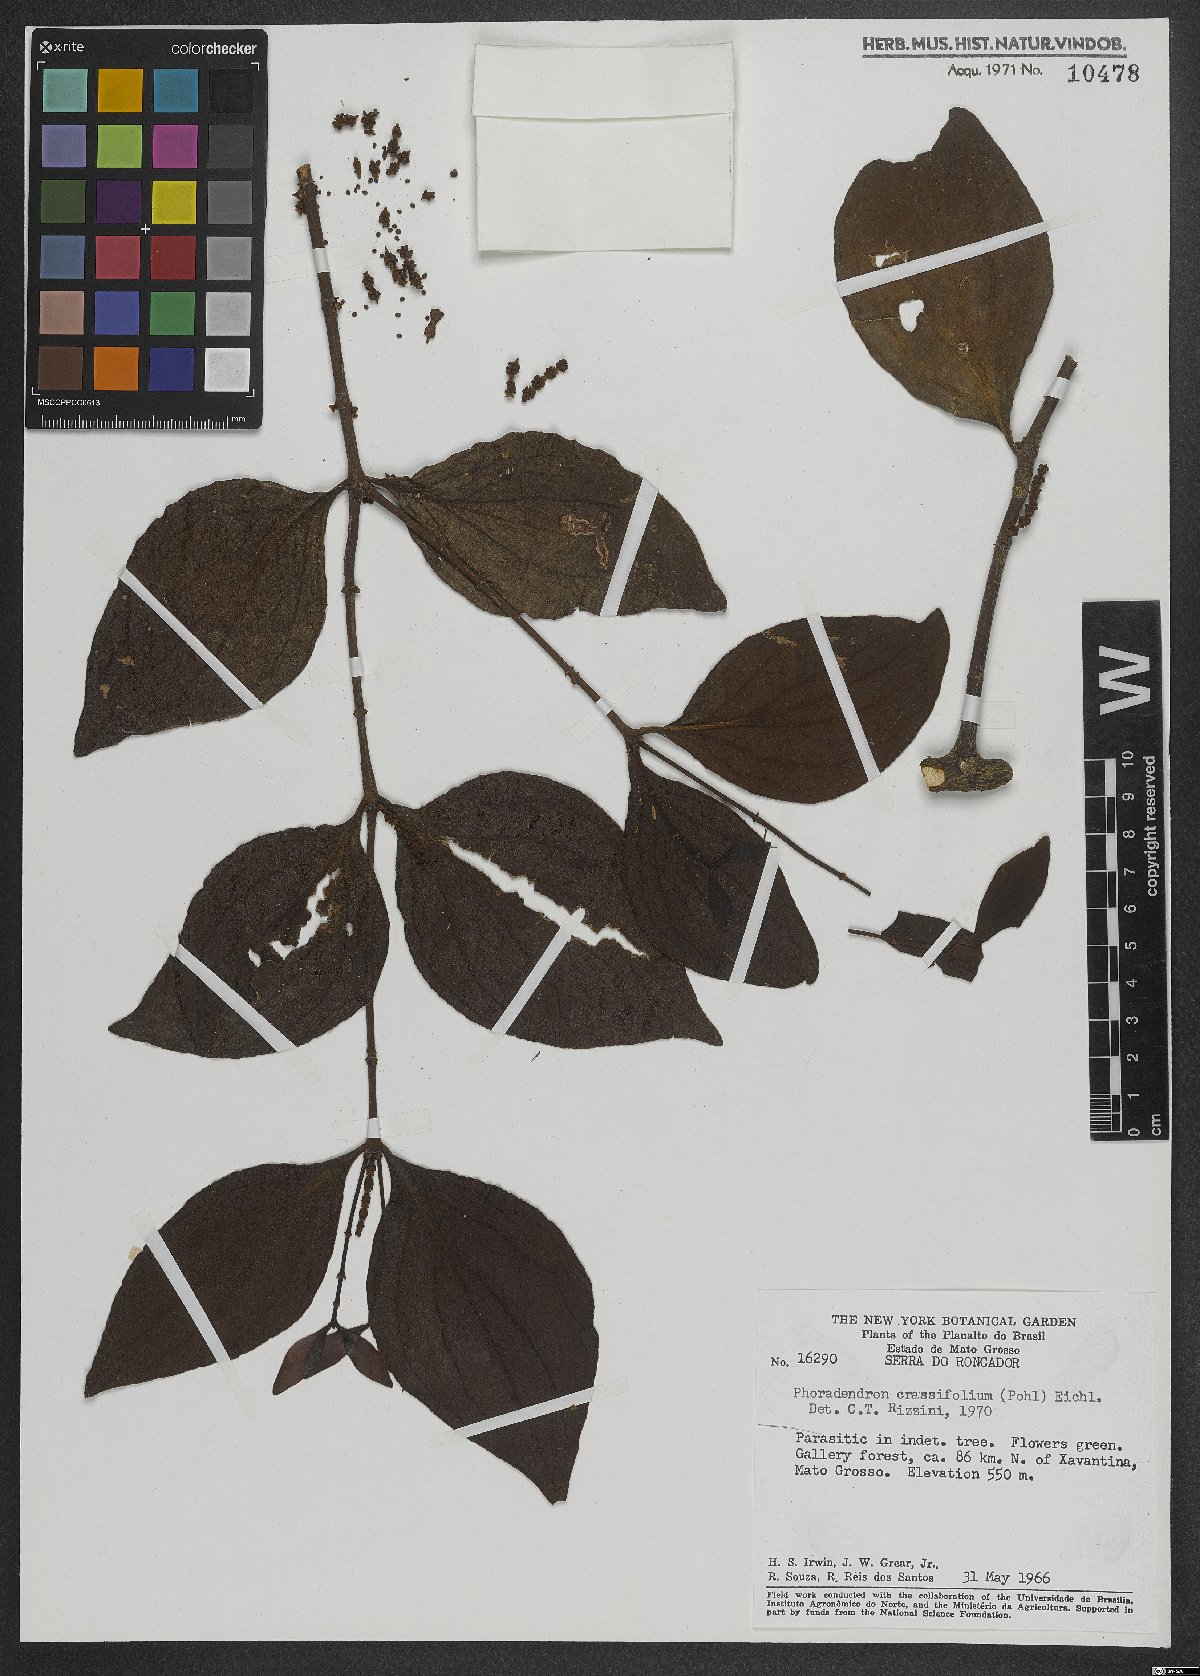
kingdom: Plantae
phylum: Tracheophyta
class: Magnoliopsida
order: Santalales
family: Viscaceae
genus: Phoradendron
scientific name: Phoradendron crassifolium
